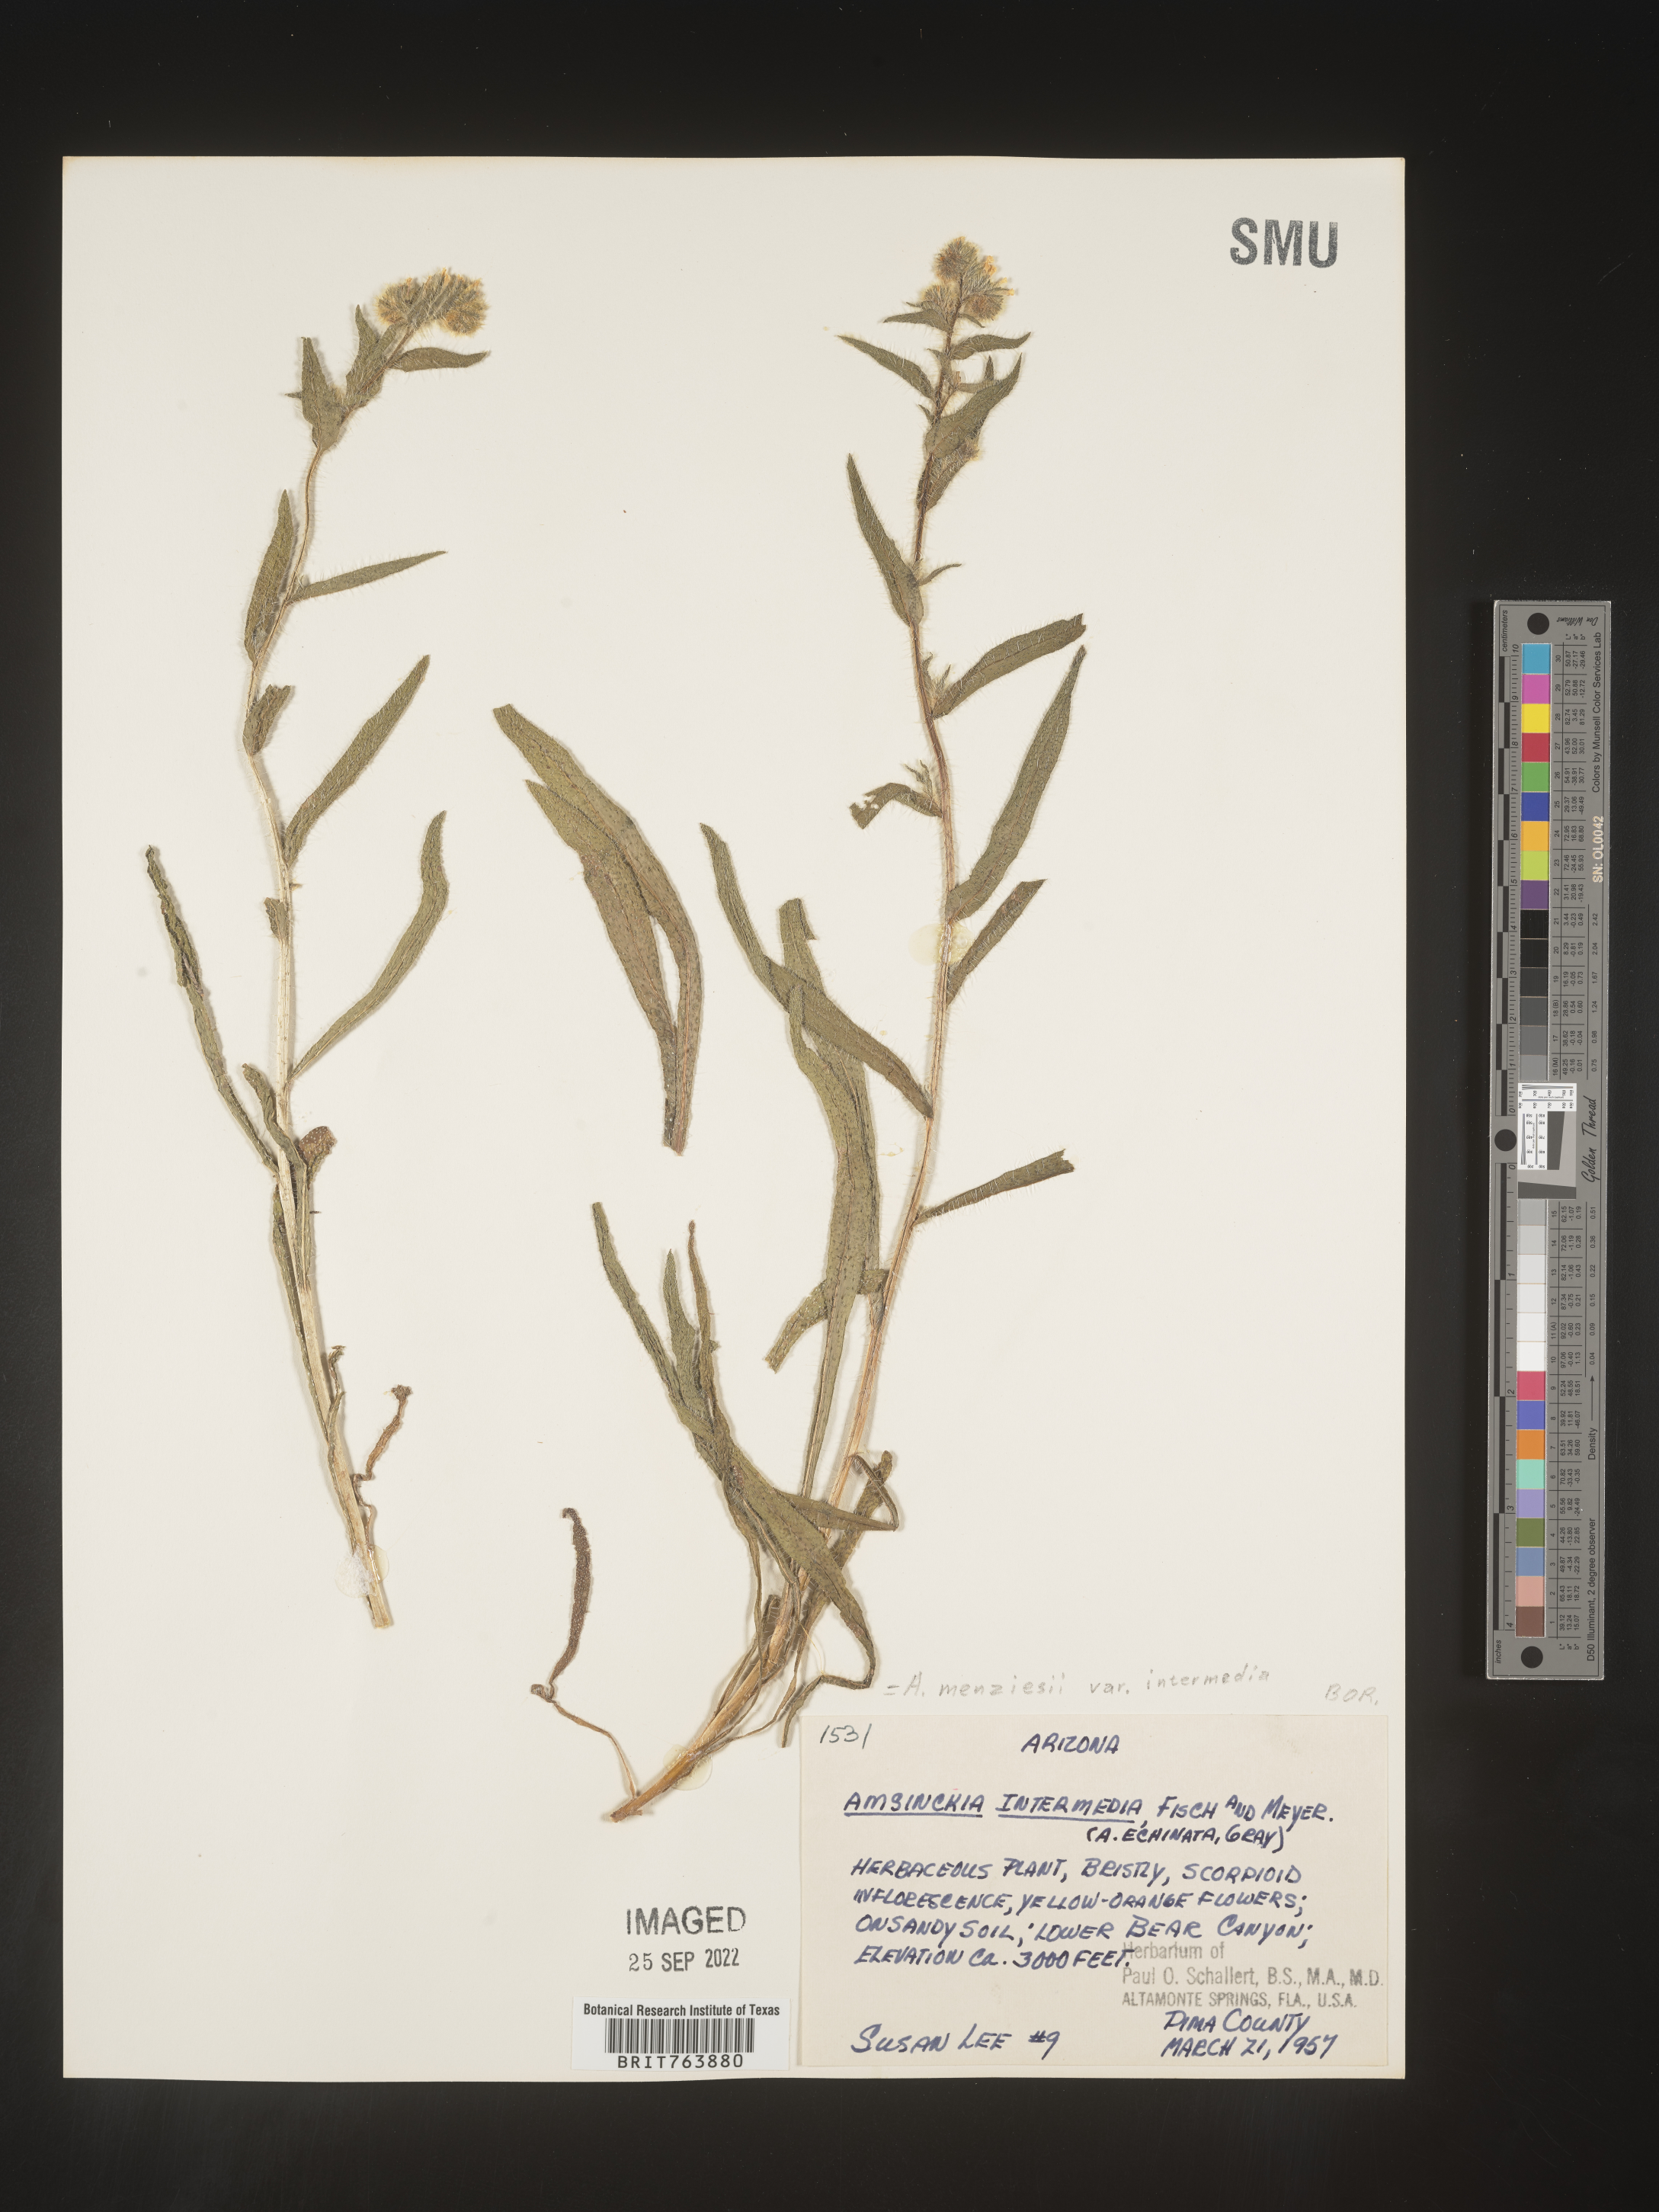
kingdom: Plantae
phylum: Tracheophyta
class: Magnoliopsida
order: Boraginales
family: Boraginaceae
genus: Amsinckia
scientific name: Amsinckia menziesii
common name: Menzies' fiddleneck
